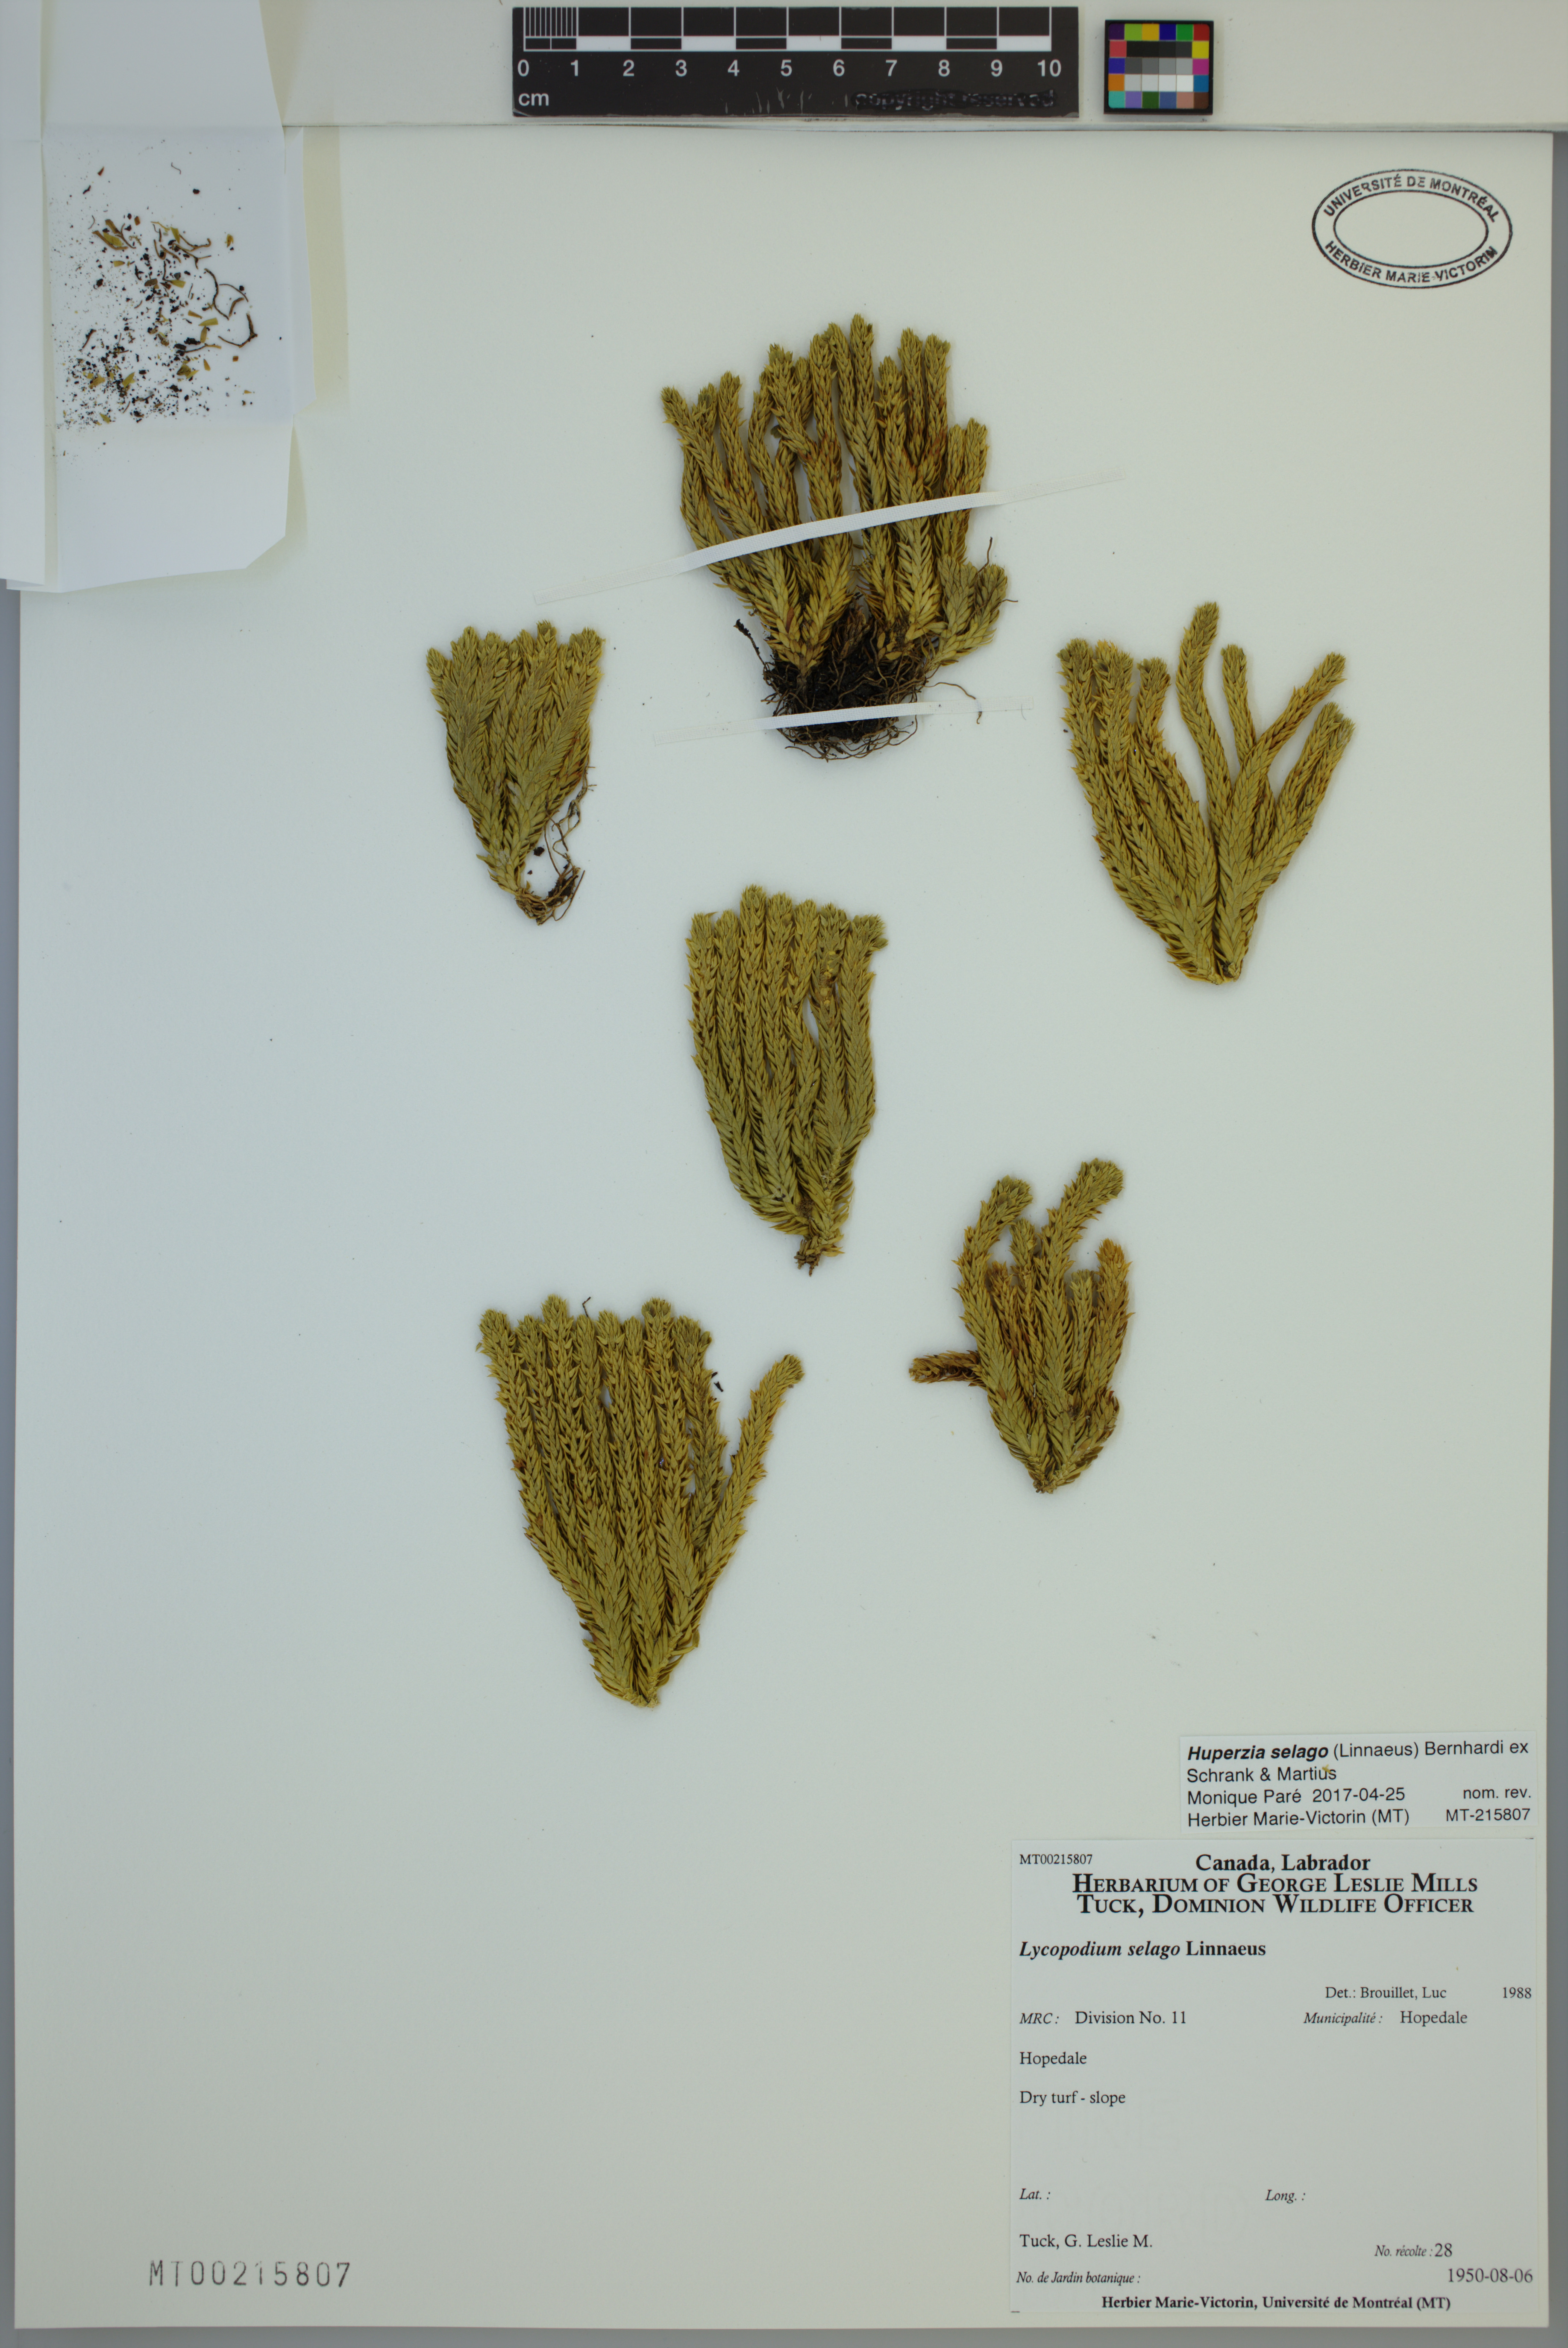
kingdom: Plantae
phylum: Tracheophyta
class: Lycopodiopsida
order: Lycopodiales
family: Lycopodiaceae
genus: Huperzia
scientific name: Huperzia selago
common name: Northern firmoss
